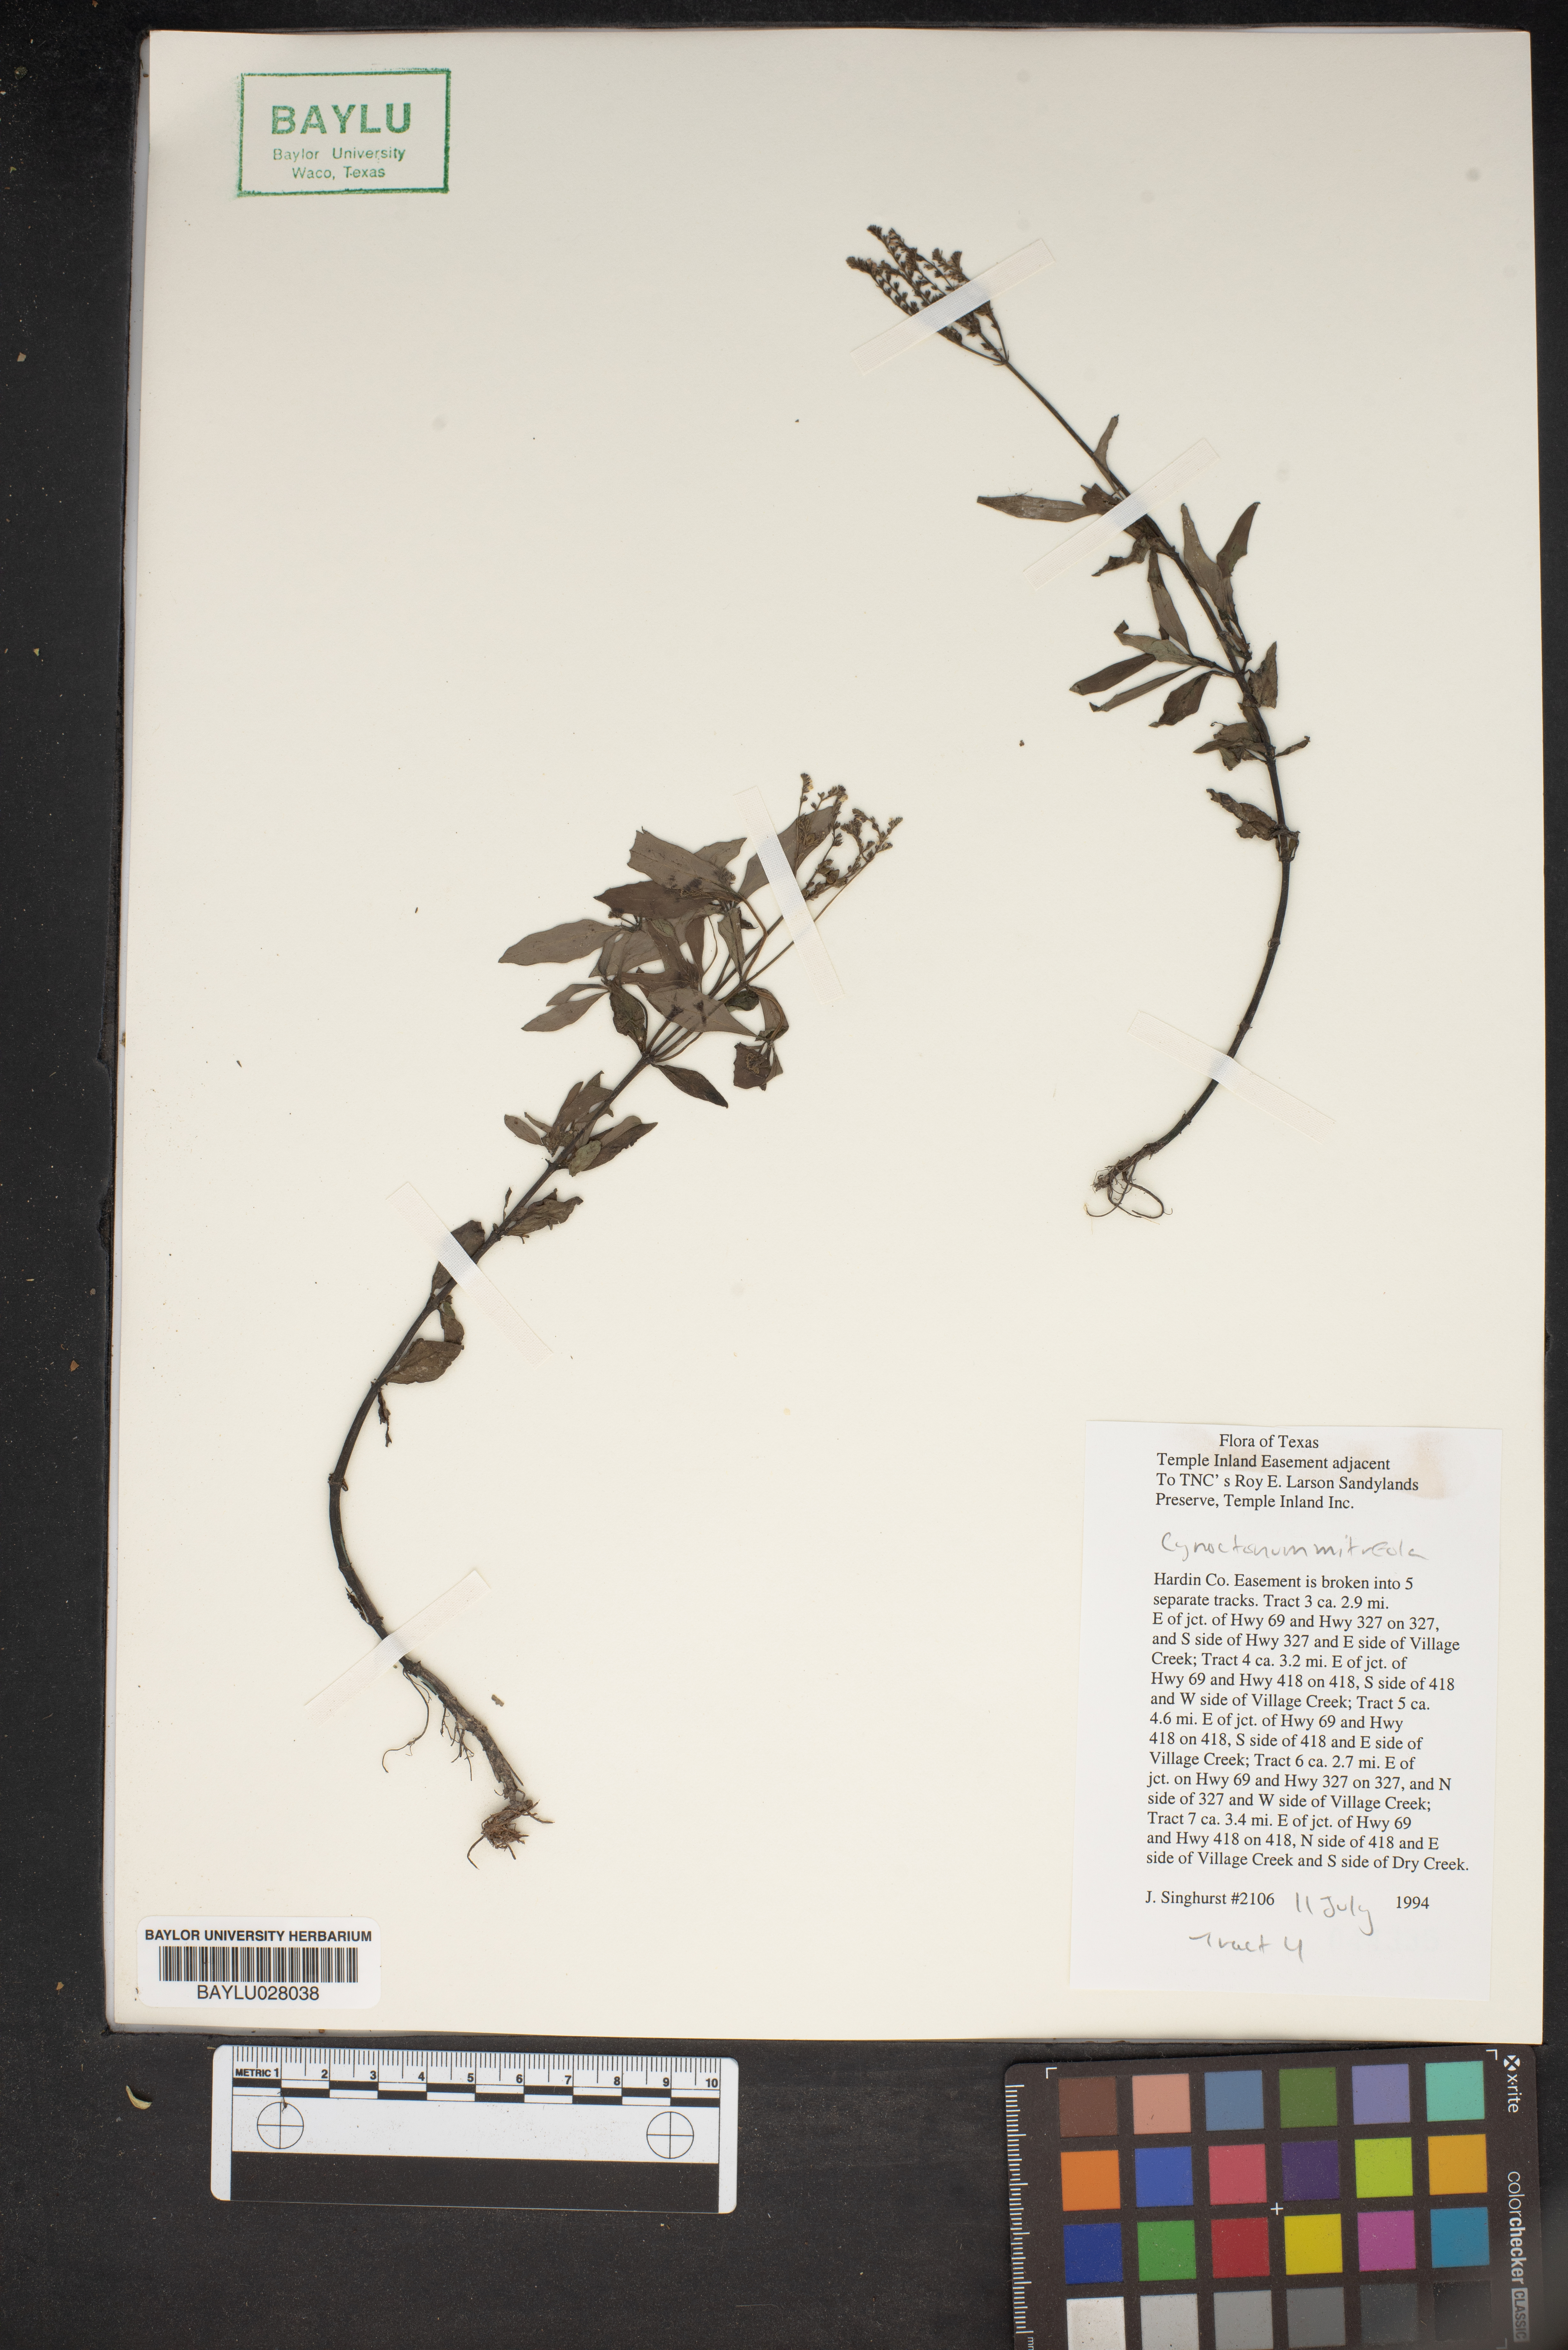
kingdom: Plantae
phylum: Tracheophyta
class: Magnoliopsida
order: Gentianales
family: Loganiaceae
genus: Mitreola
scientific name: Mitreola petiolata
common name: Lax hornpod
